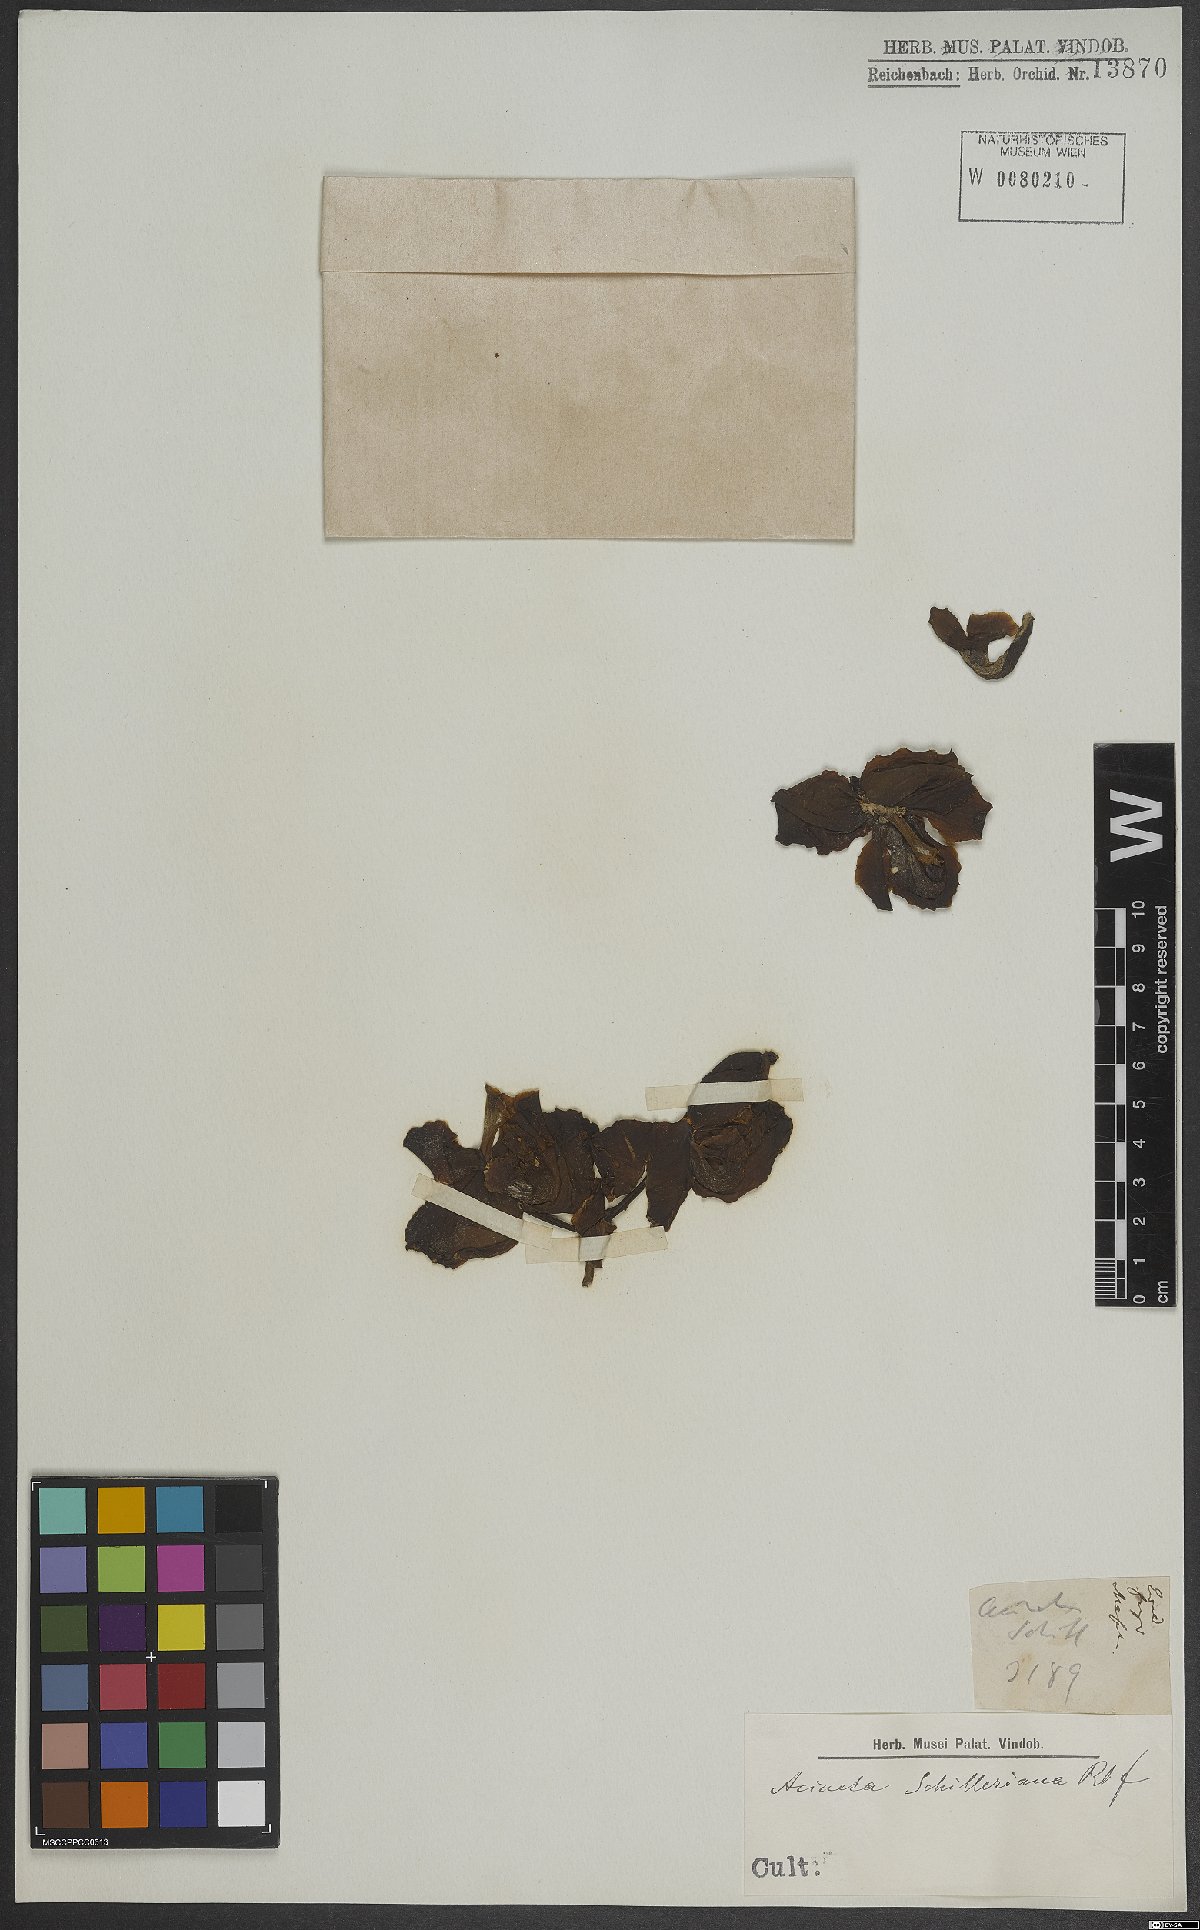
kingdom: Plantae
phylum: Tracheophyta
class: Liliopsida
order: Asparagales
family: Orchidaceae
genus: Acineta
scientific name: Acineta superba
